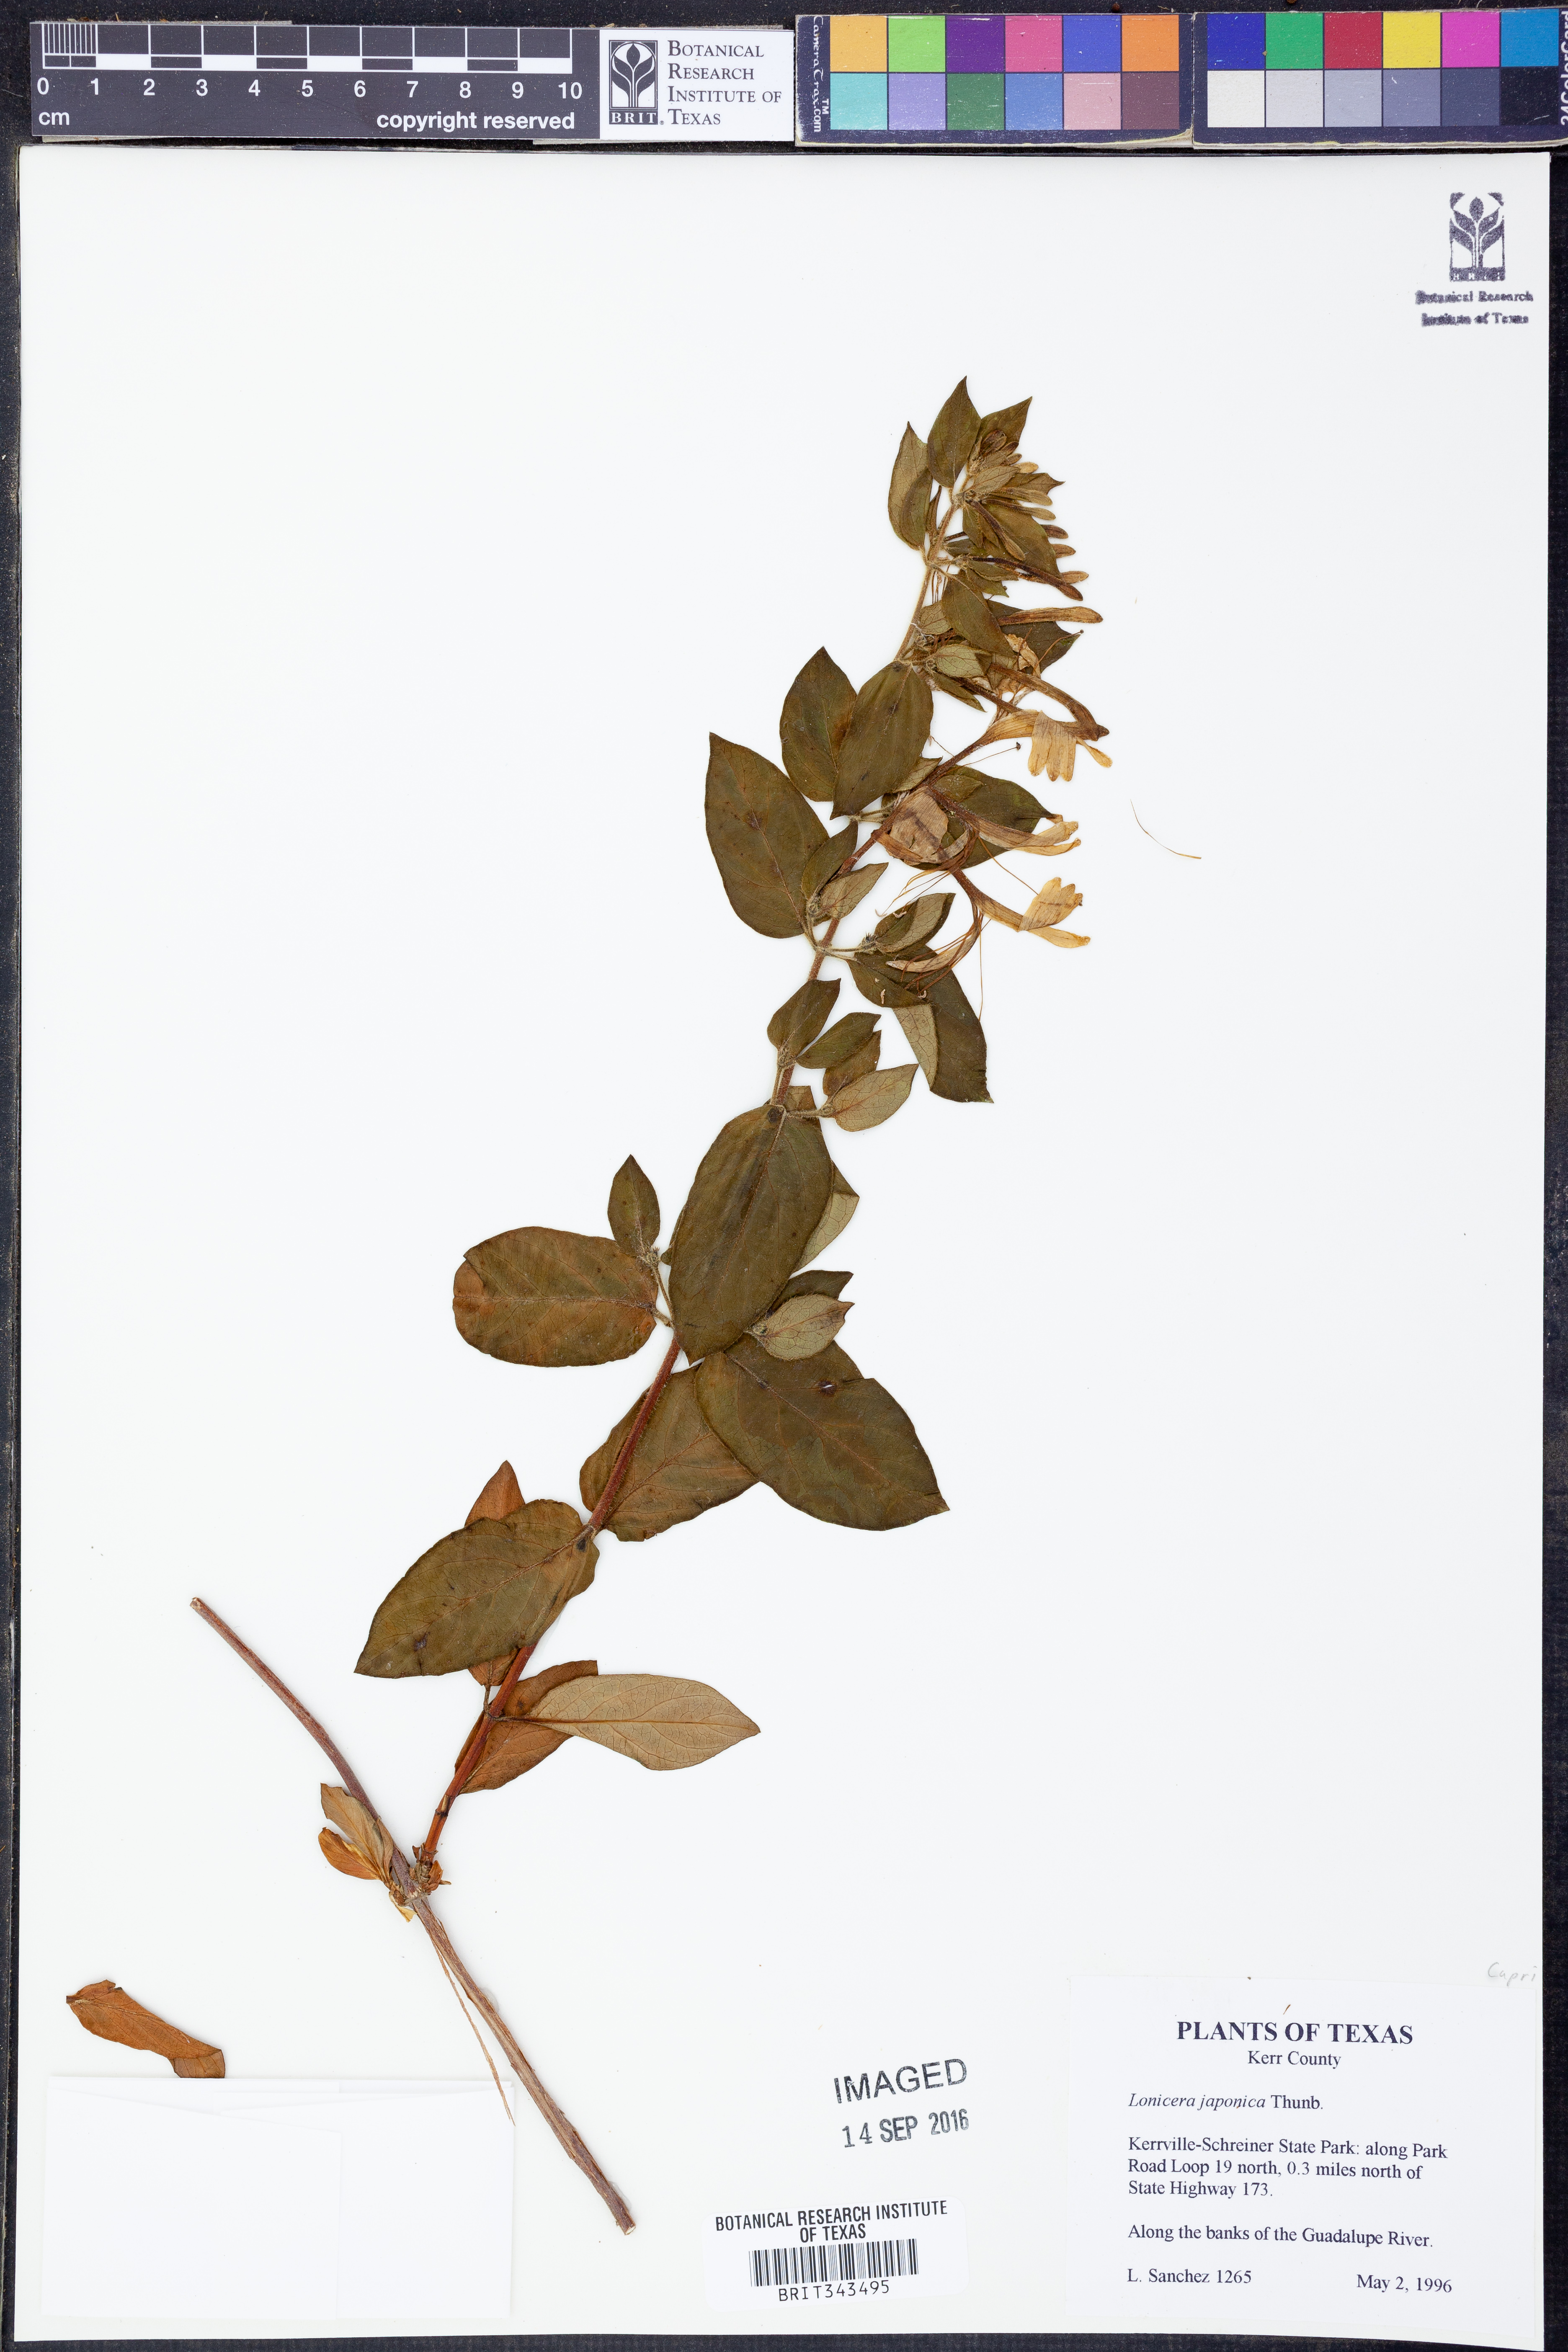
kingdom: Plantae
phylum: Tracheophyta
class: Magnoliopsida
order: Dipsacales
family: Caprifoliaceae
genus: Lonicera
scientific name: Lonicera japonica
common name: Japanese honeysuckle
